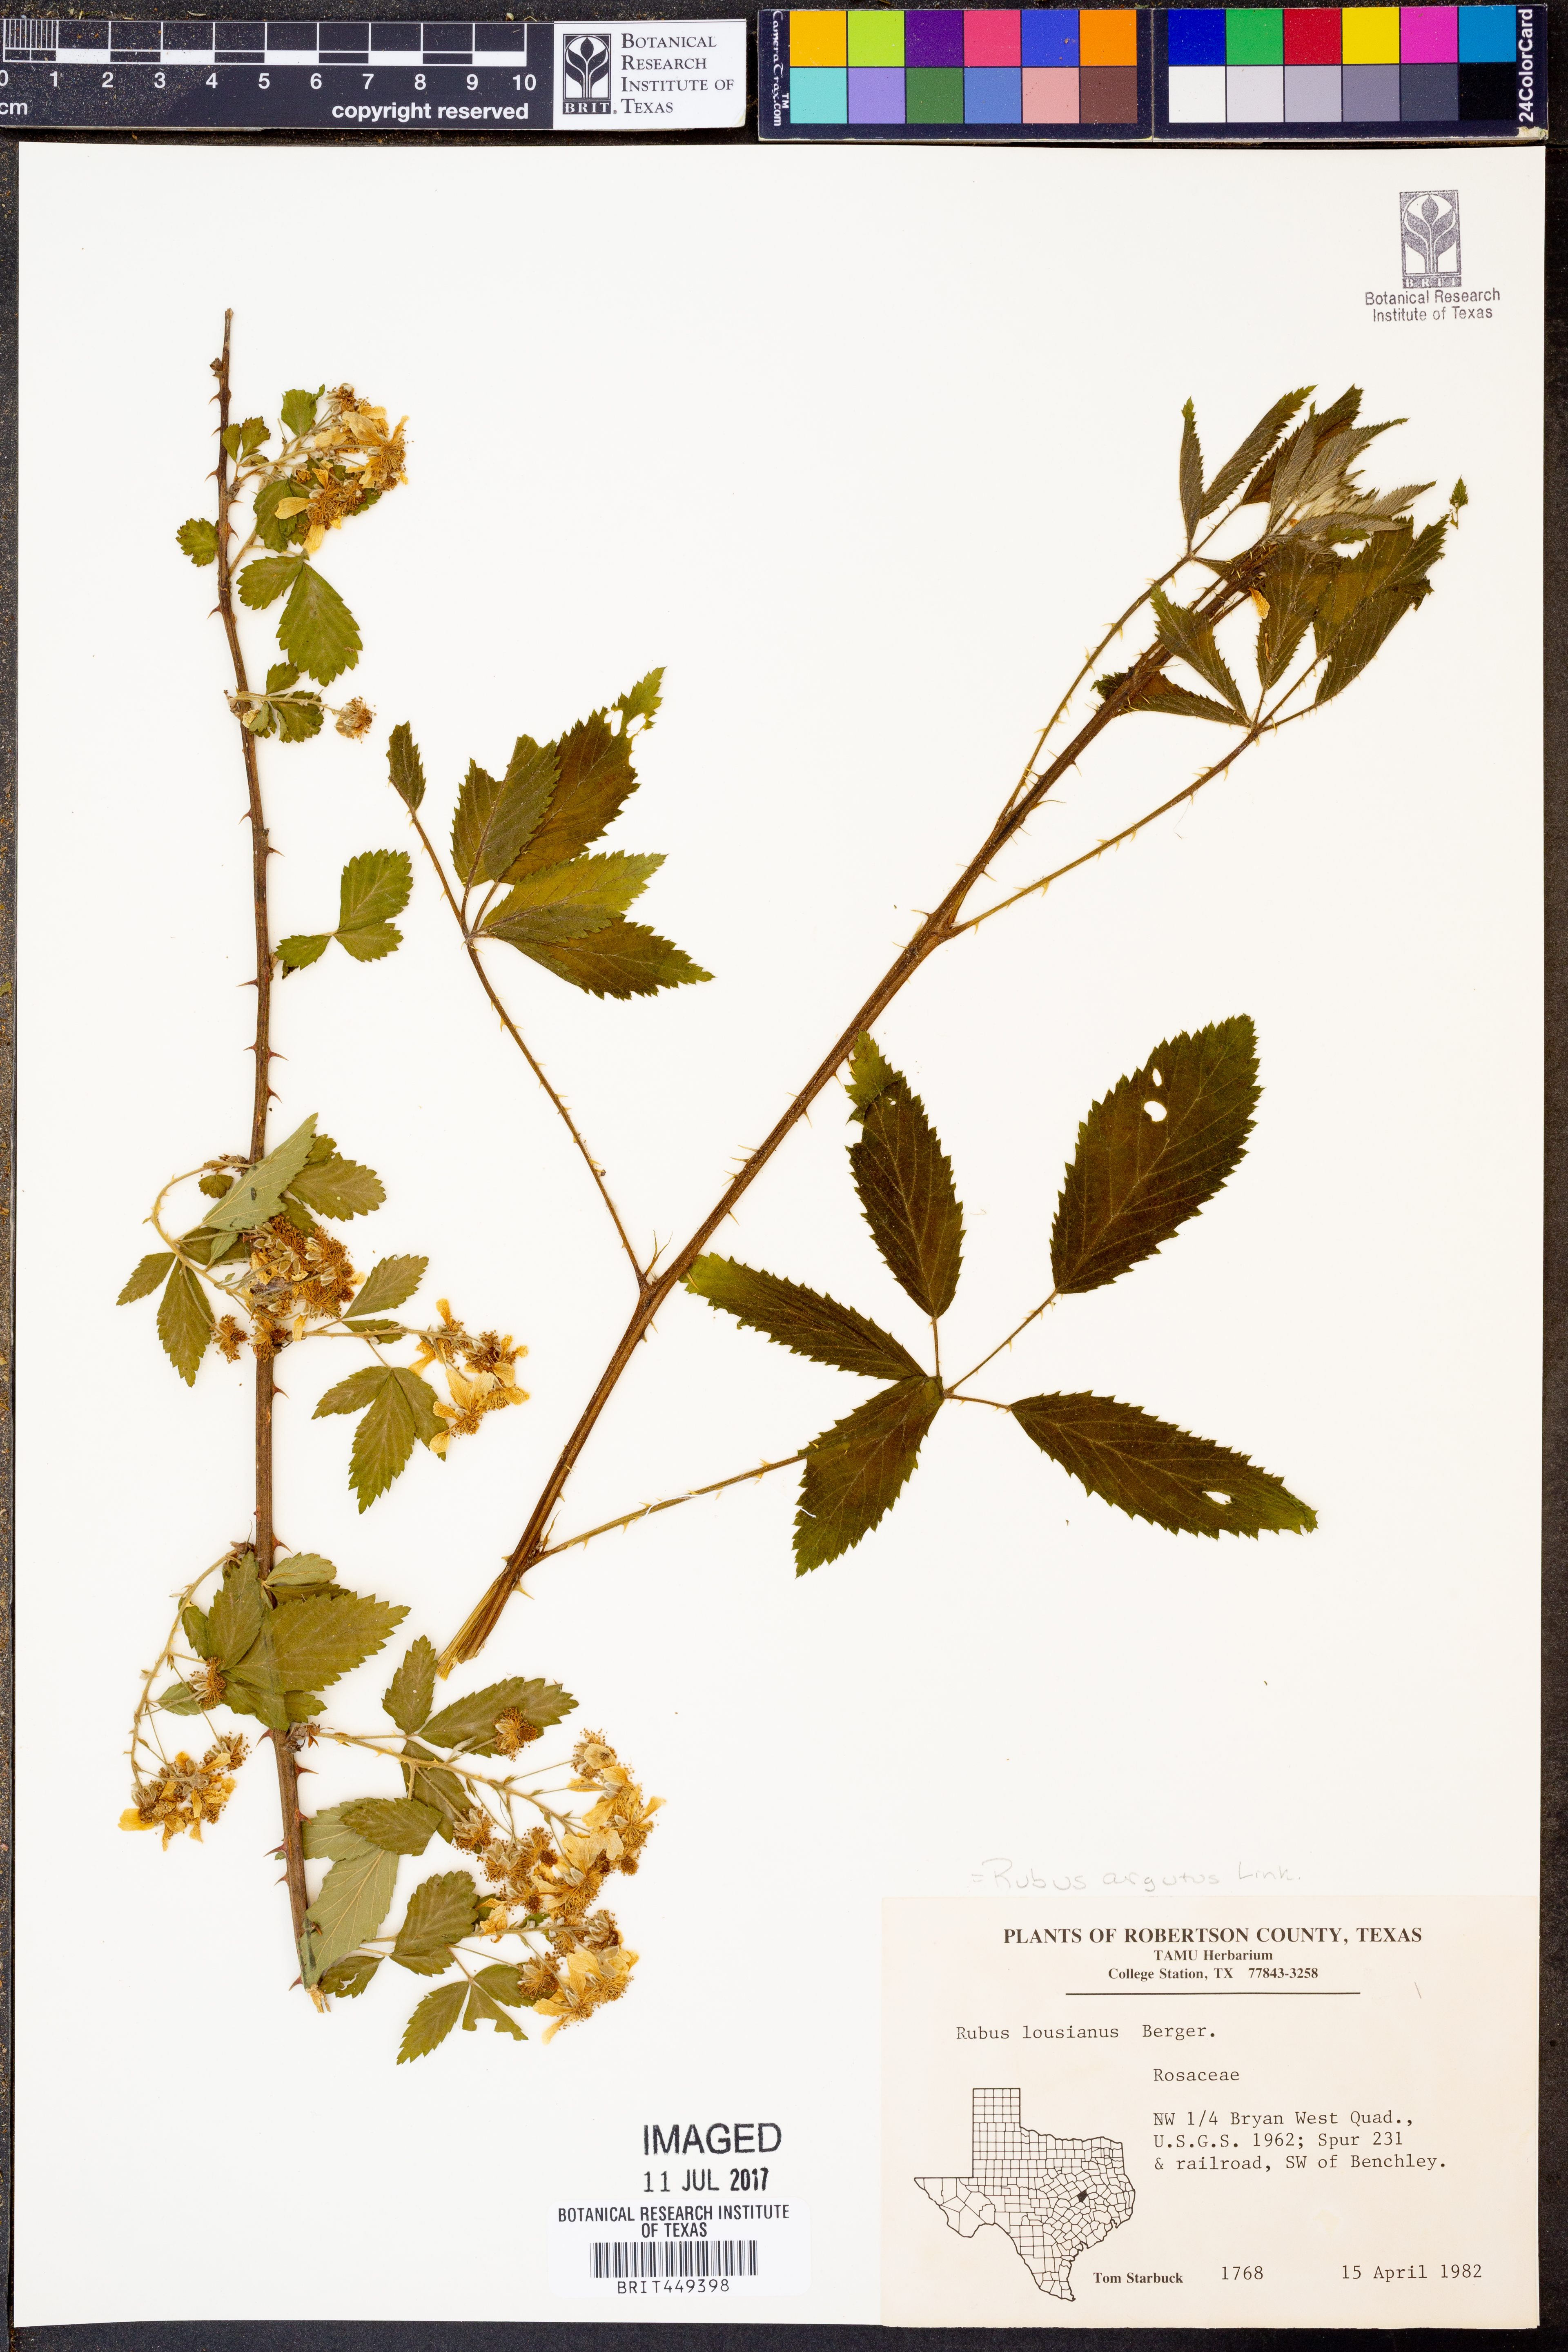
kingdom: Plantae
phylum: Tracheophyta
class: Magnoliopsida
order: Rosales
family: Rosaceae
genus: Rubus
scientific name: Rubus argutus
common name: Sawtooth blackberry
